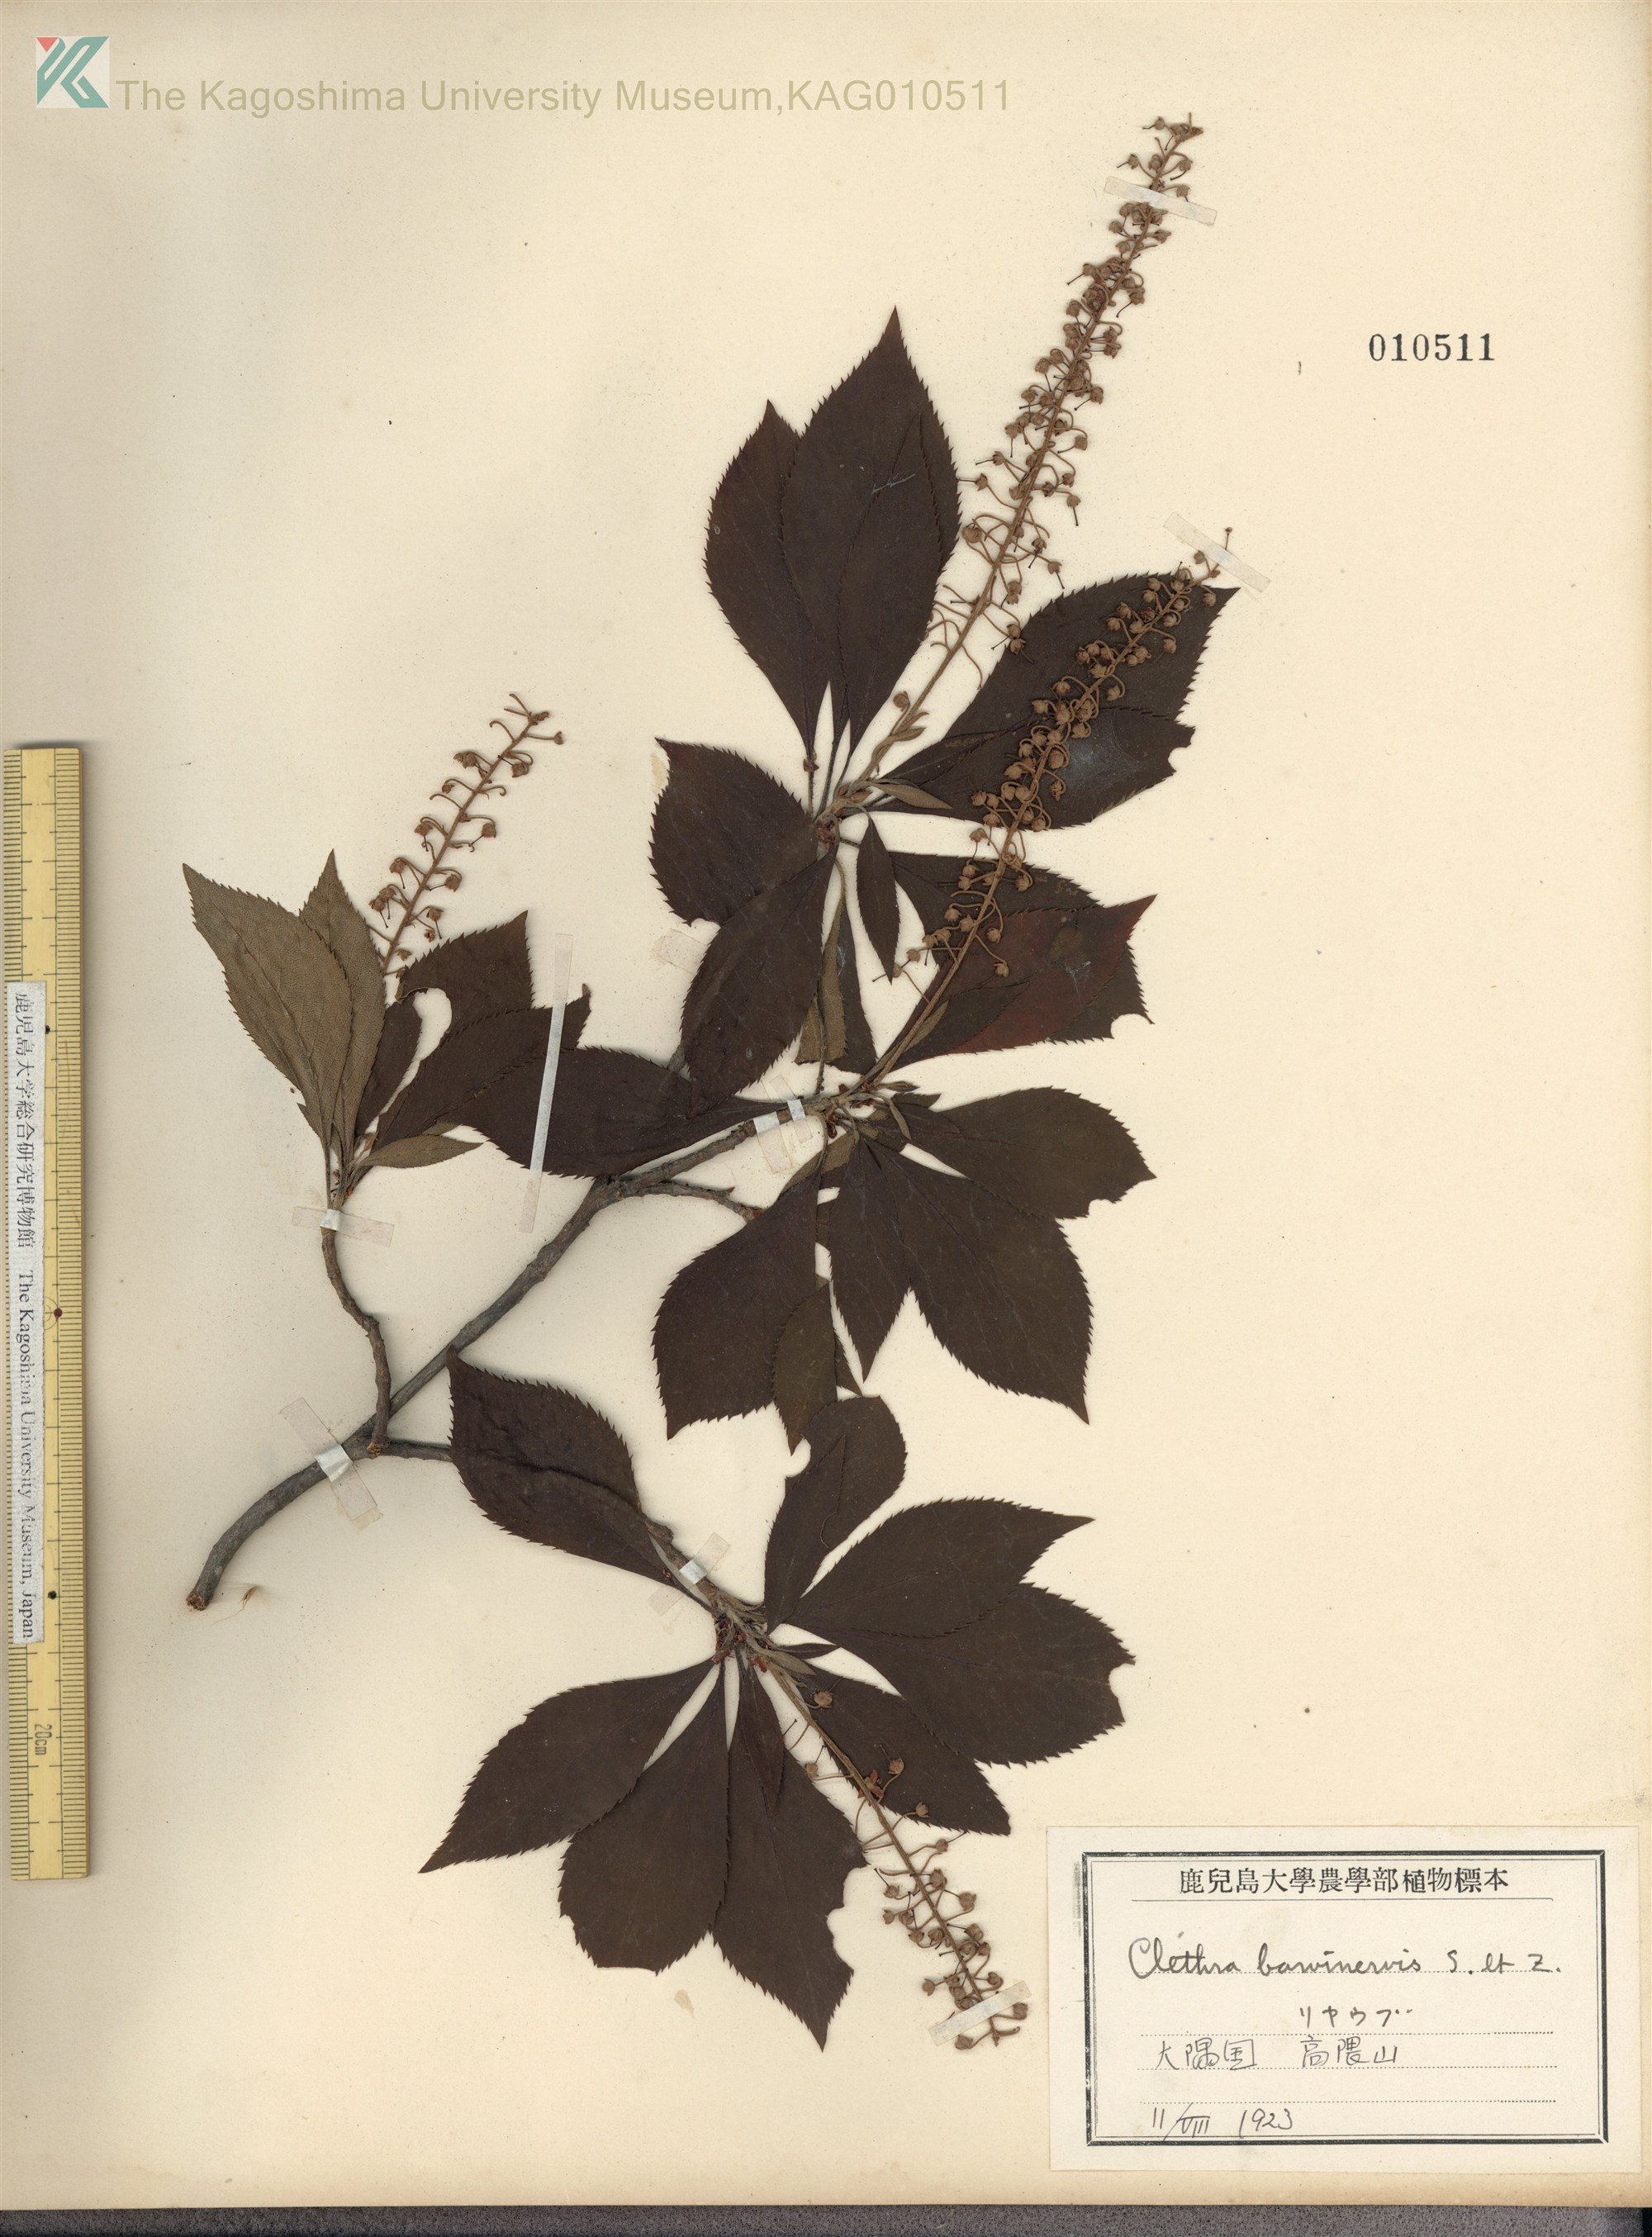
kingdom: Plantae
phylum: Tracheophyta
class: Magnoliopsida
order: Ericales
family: Clethraceae
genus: Clethra
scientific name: Clethra barbinervis
